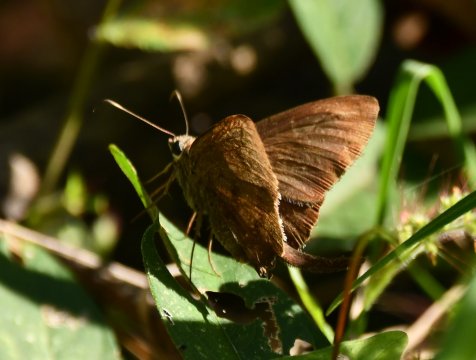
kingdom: Animalia
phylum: Arthropoda
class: Insecta
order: Lepidoptera
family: Hesperiidae
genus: Urbanus
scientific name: Urbanus procne
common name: Brown Longtail
